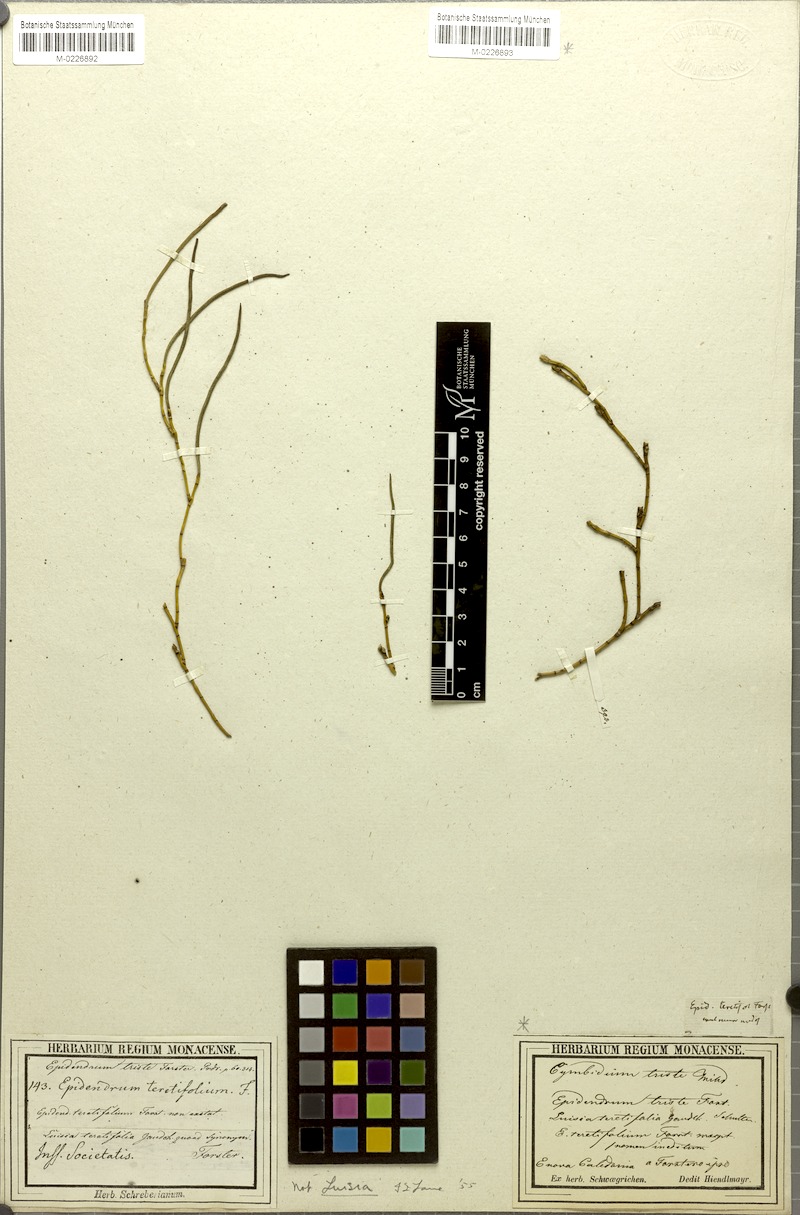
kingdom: Plantae
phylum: Tracheophyta
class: Liliopsida
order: Asparagales
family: Orchidaceae
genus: Dendrobium
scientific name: Dendrobium crispatum
